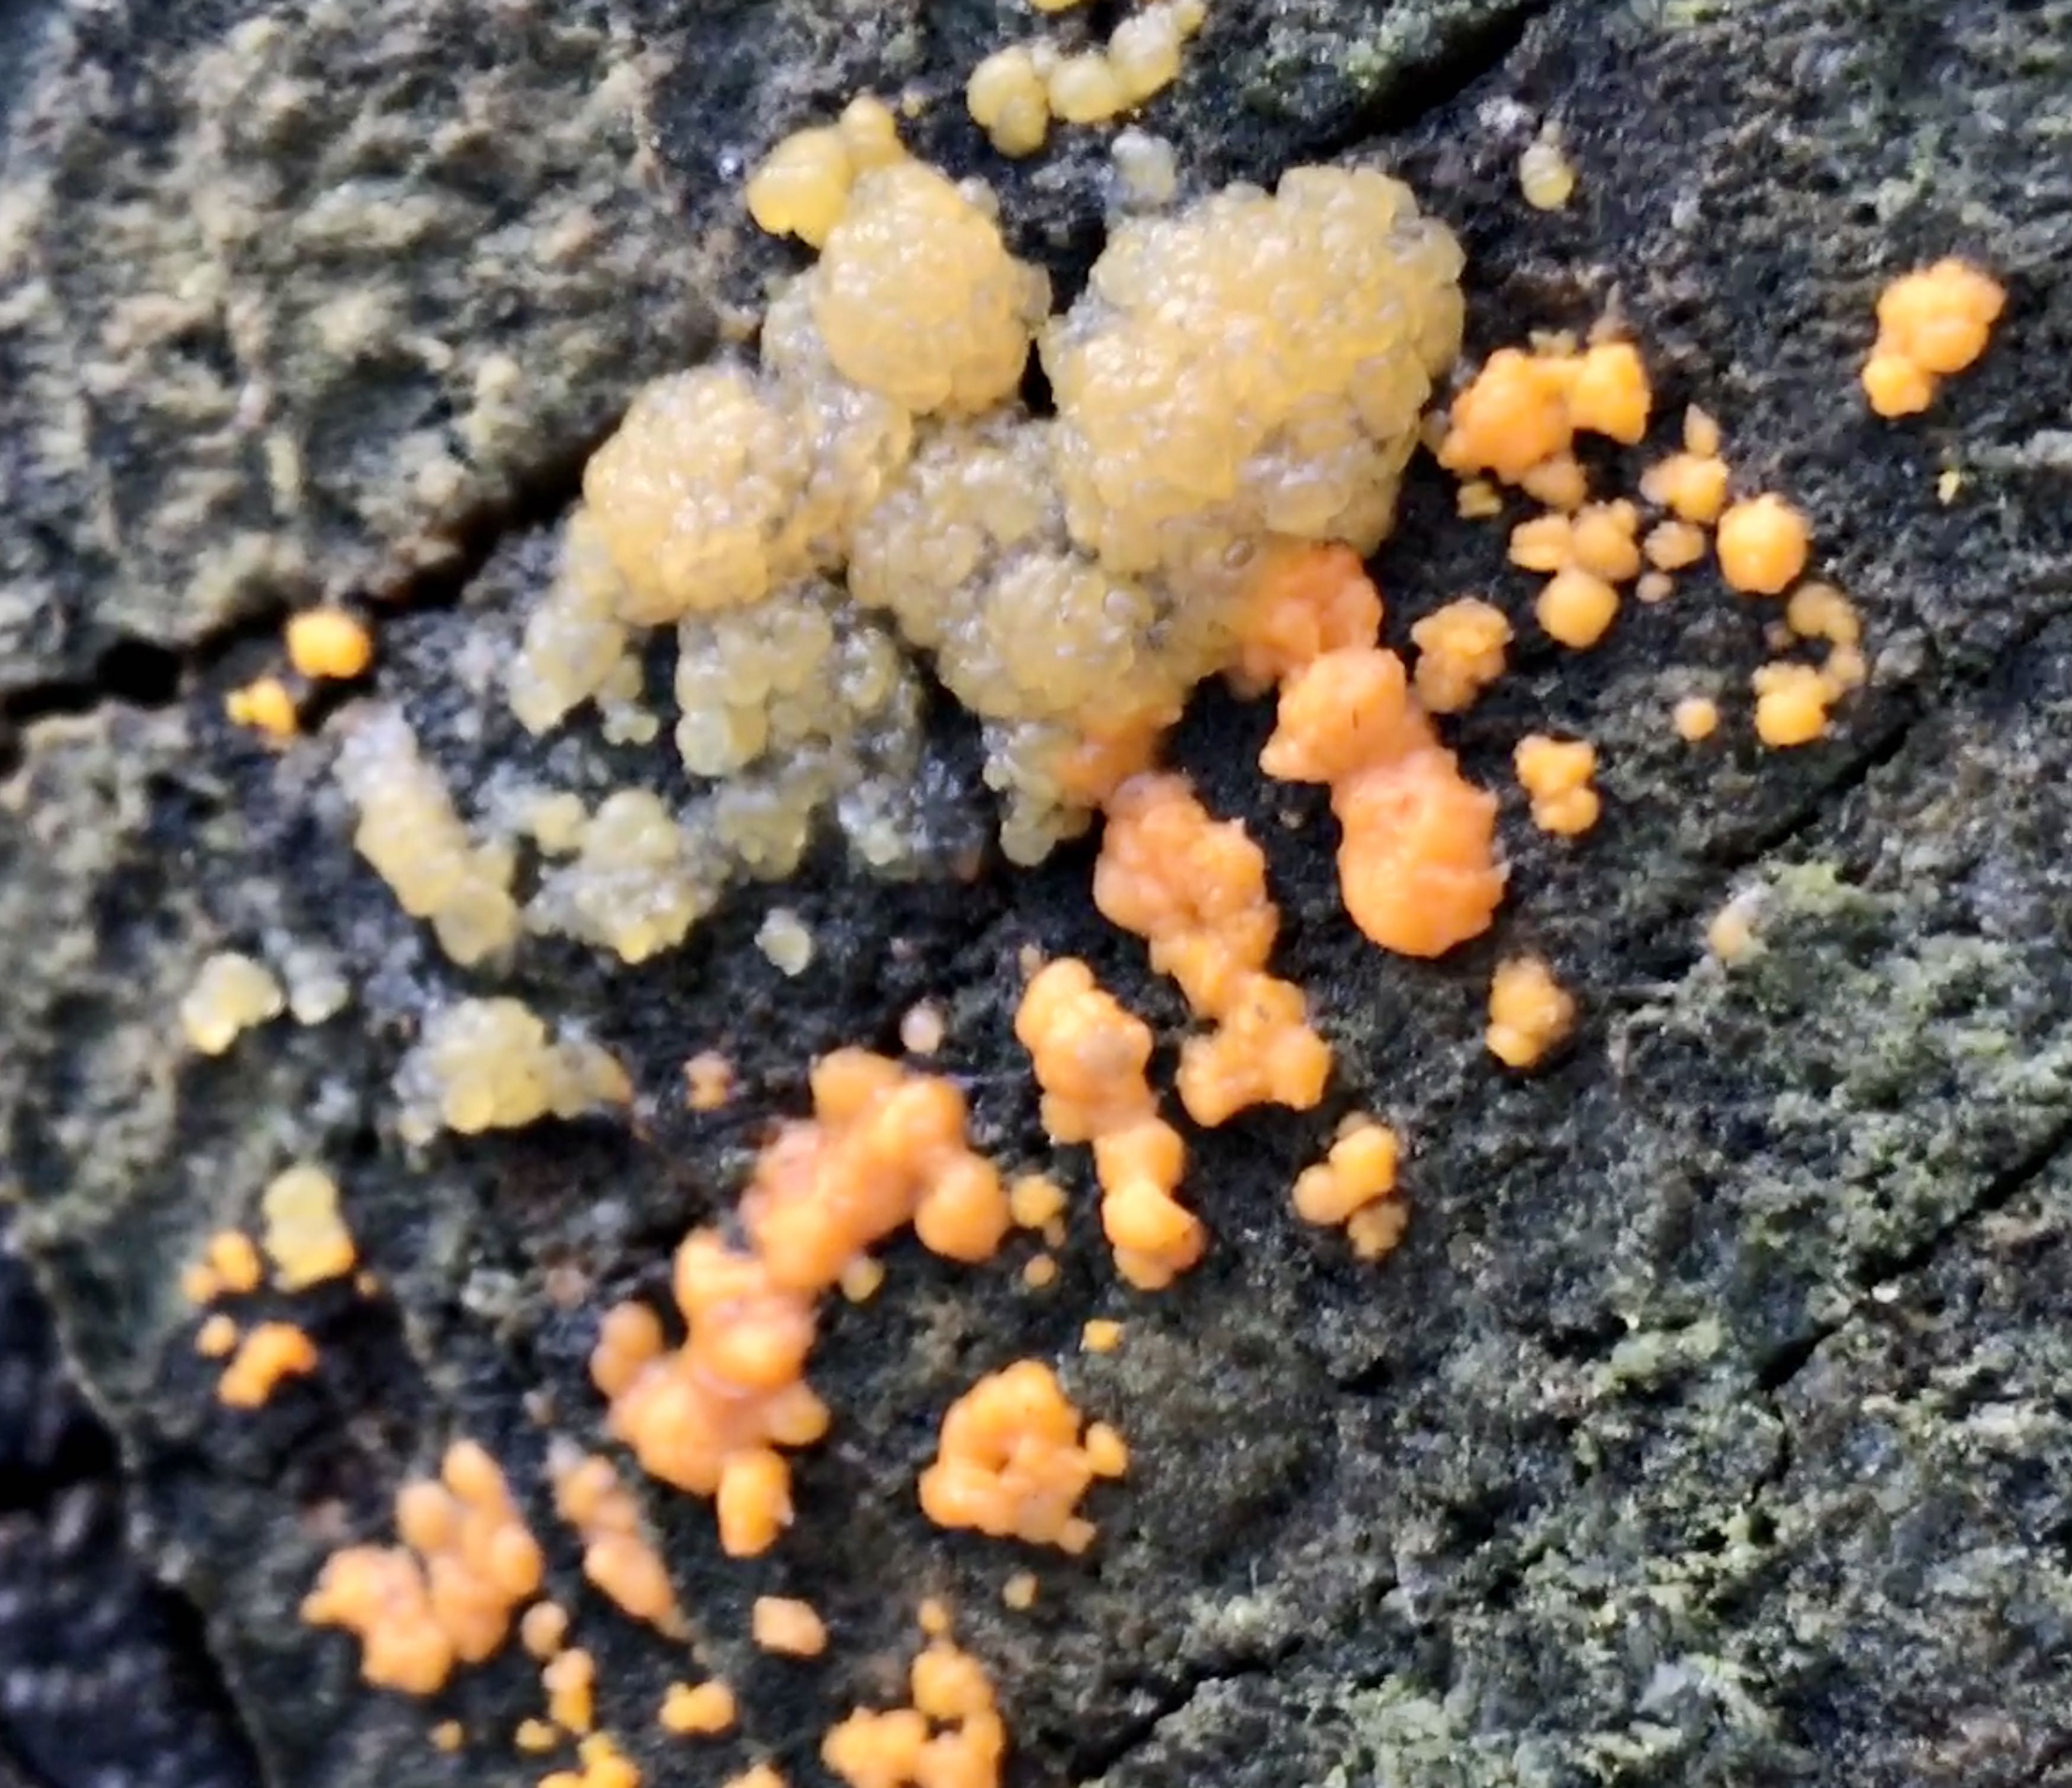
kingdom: Fungi
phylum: Basidiomycota
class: Dacrymycetes
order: Dacrymycetales
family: Dacrymycetaceae
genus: Dacrymyces
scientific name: Dacrymyces stillatus
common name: almindelig tåresvamp
